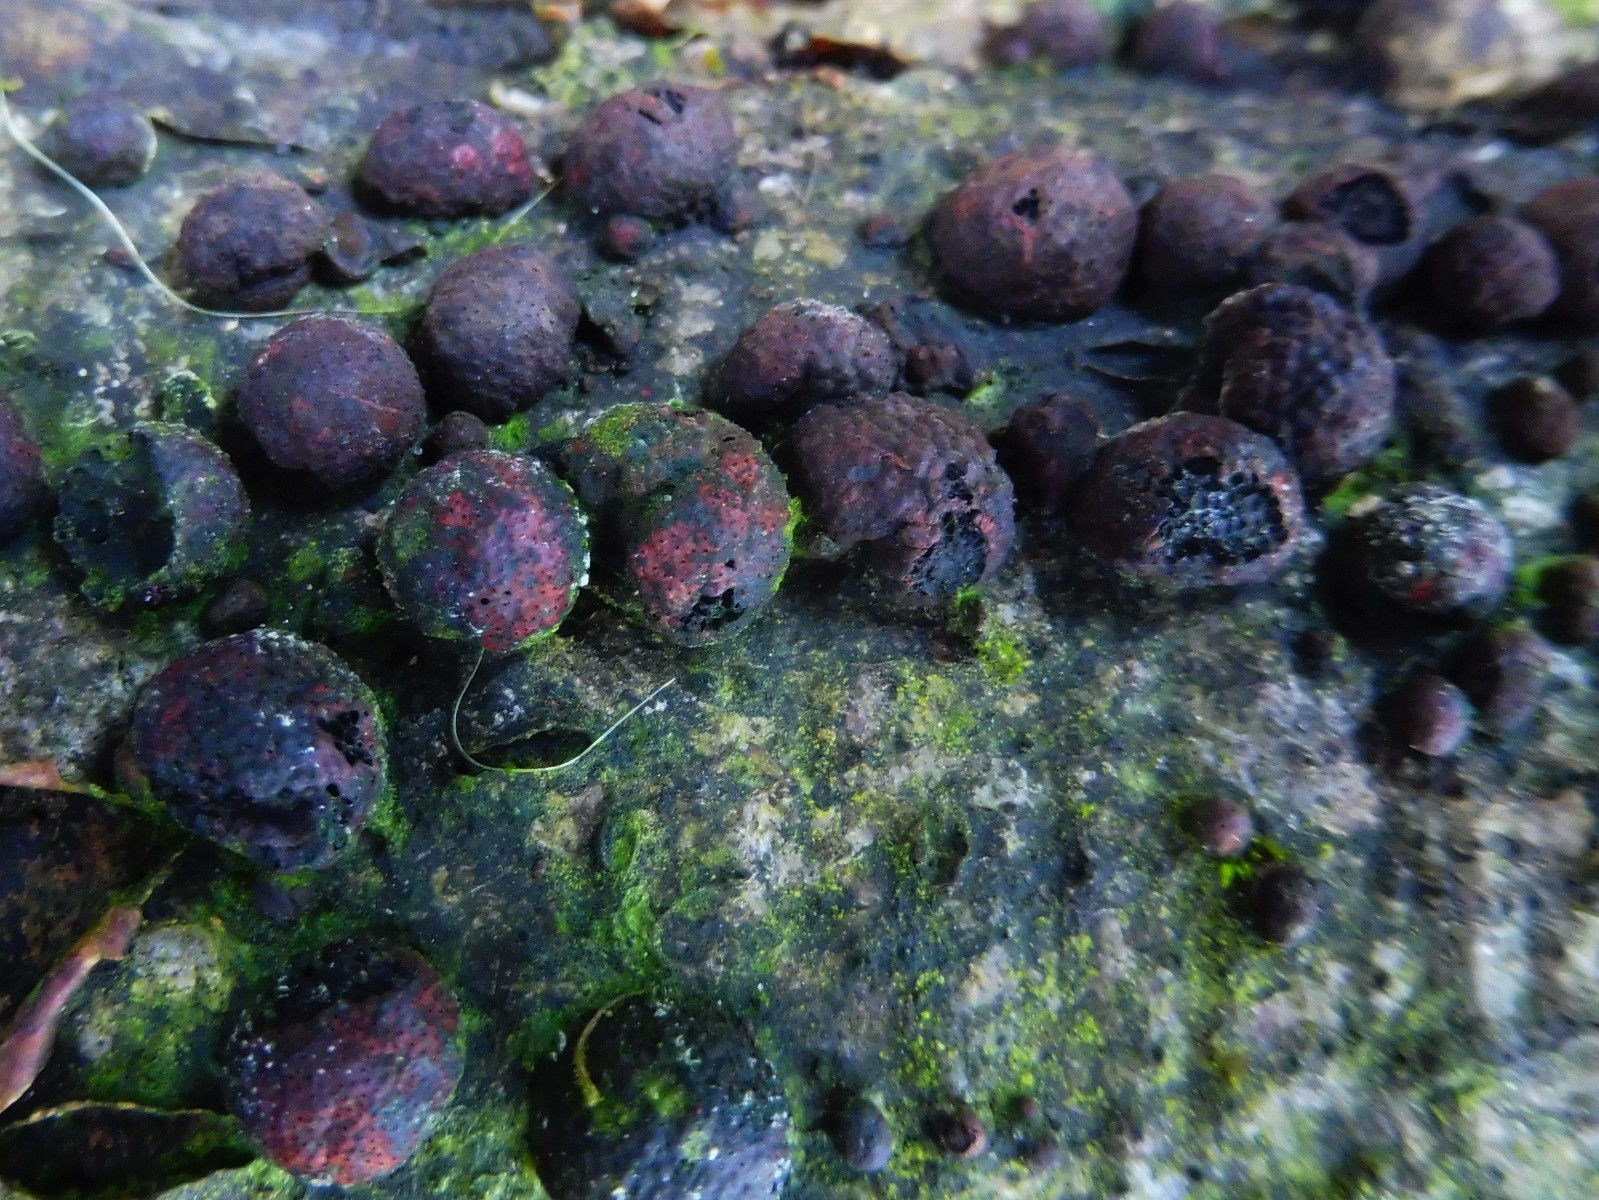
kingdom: Fungi
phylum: Ascomycota
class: Sordariomycetes
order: Xylariales
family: Hypoxylaceae
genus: Hypoxylon
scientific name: Hypoxylon fragiforme
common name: kuljordbær
